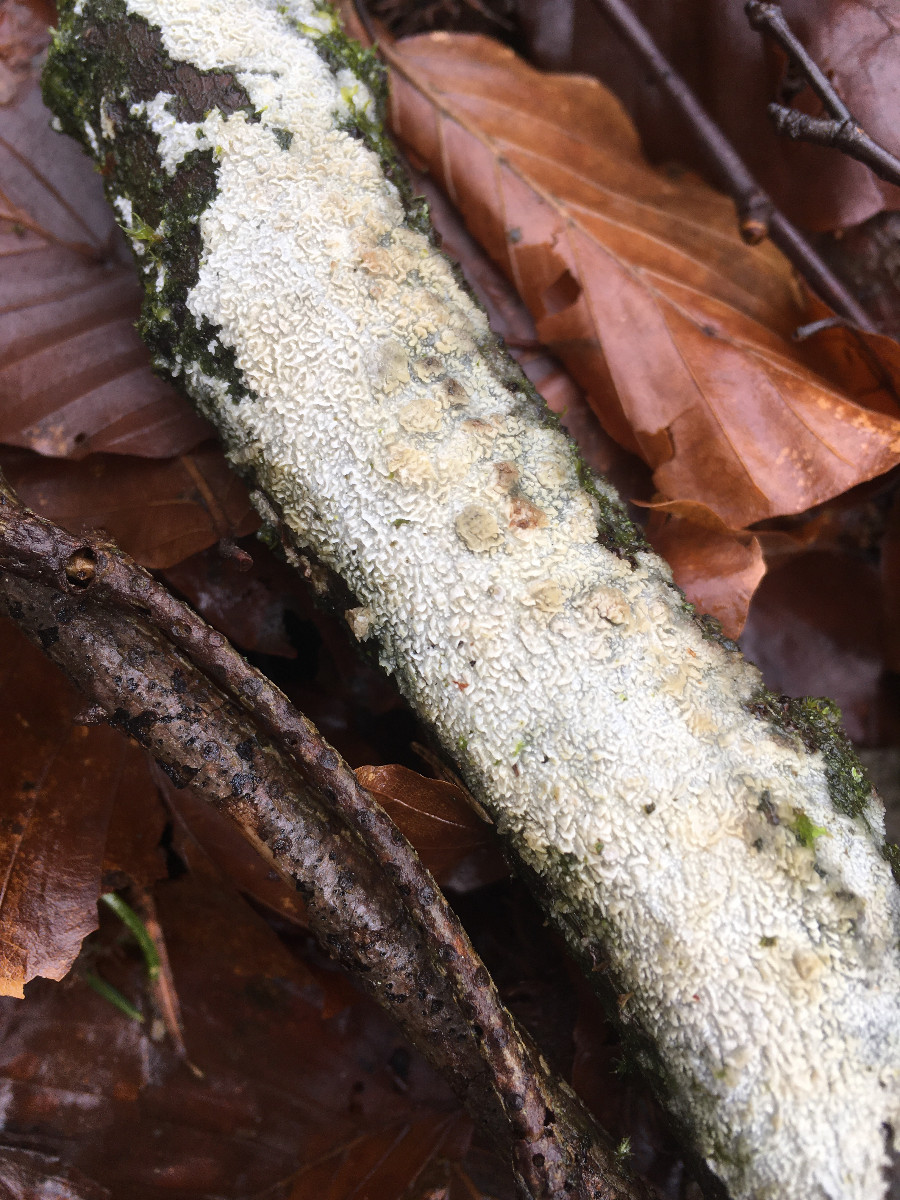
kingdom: Fungi
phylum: Basidiomycota
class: Agaricomycetes
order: Hymenochaetales
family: Schizoporaceae
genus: Xylodon
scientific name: Xylodon
